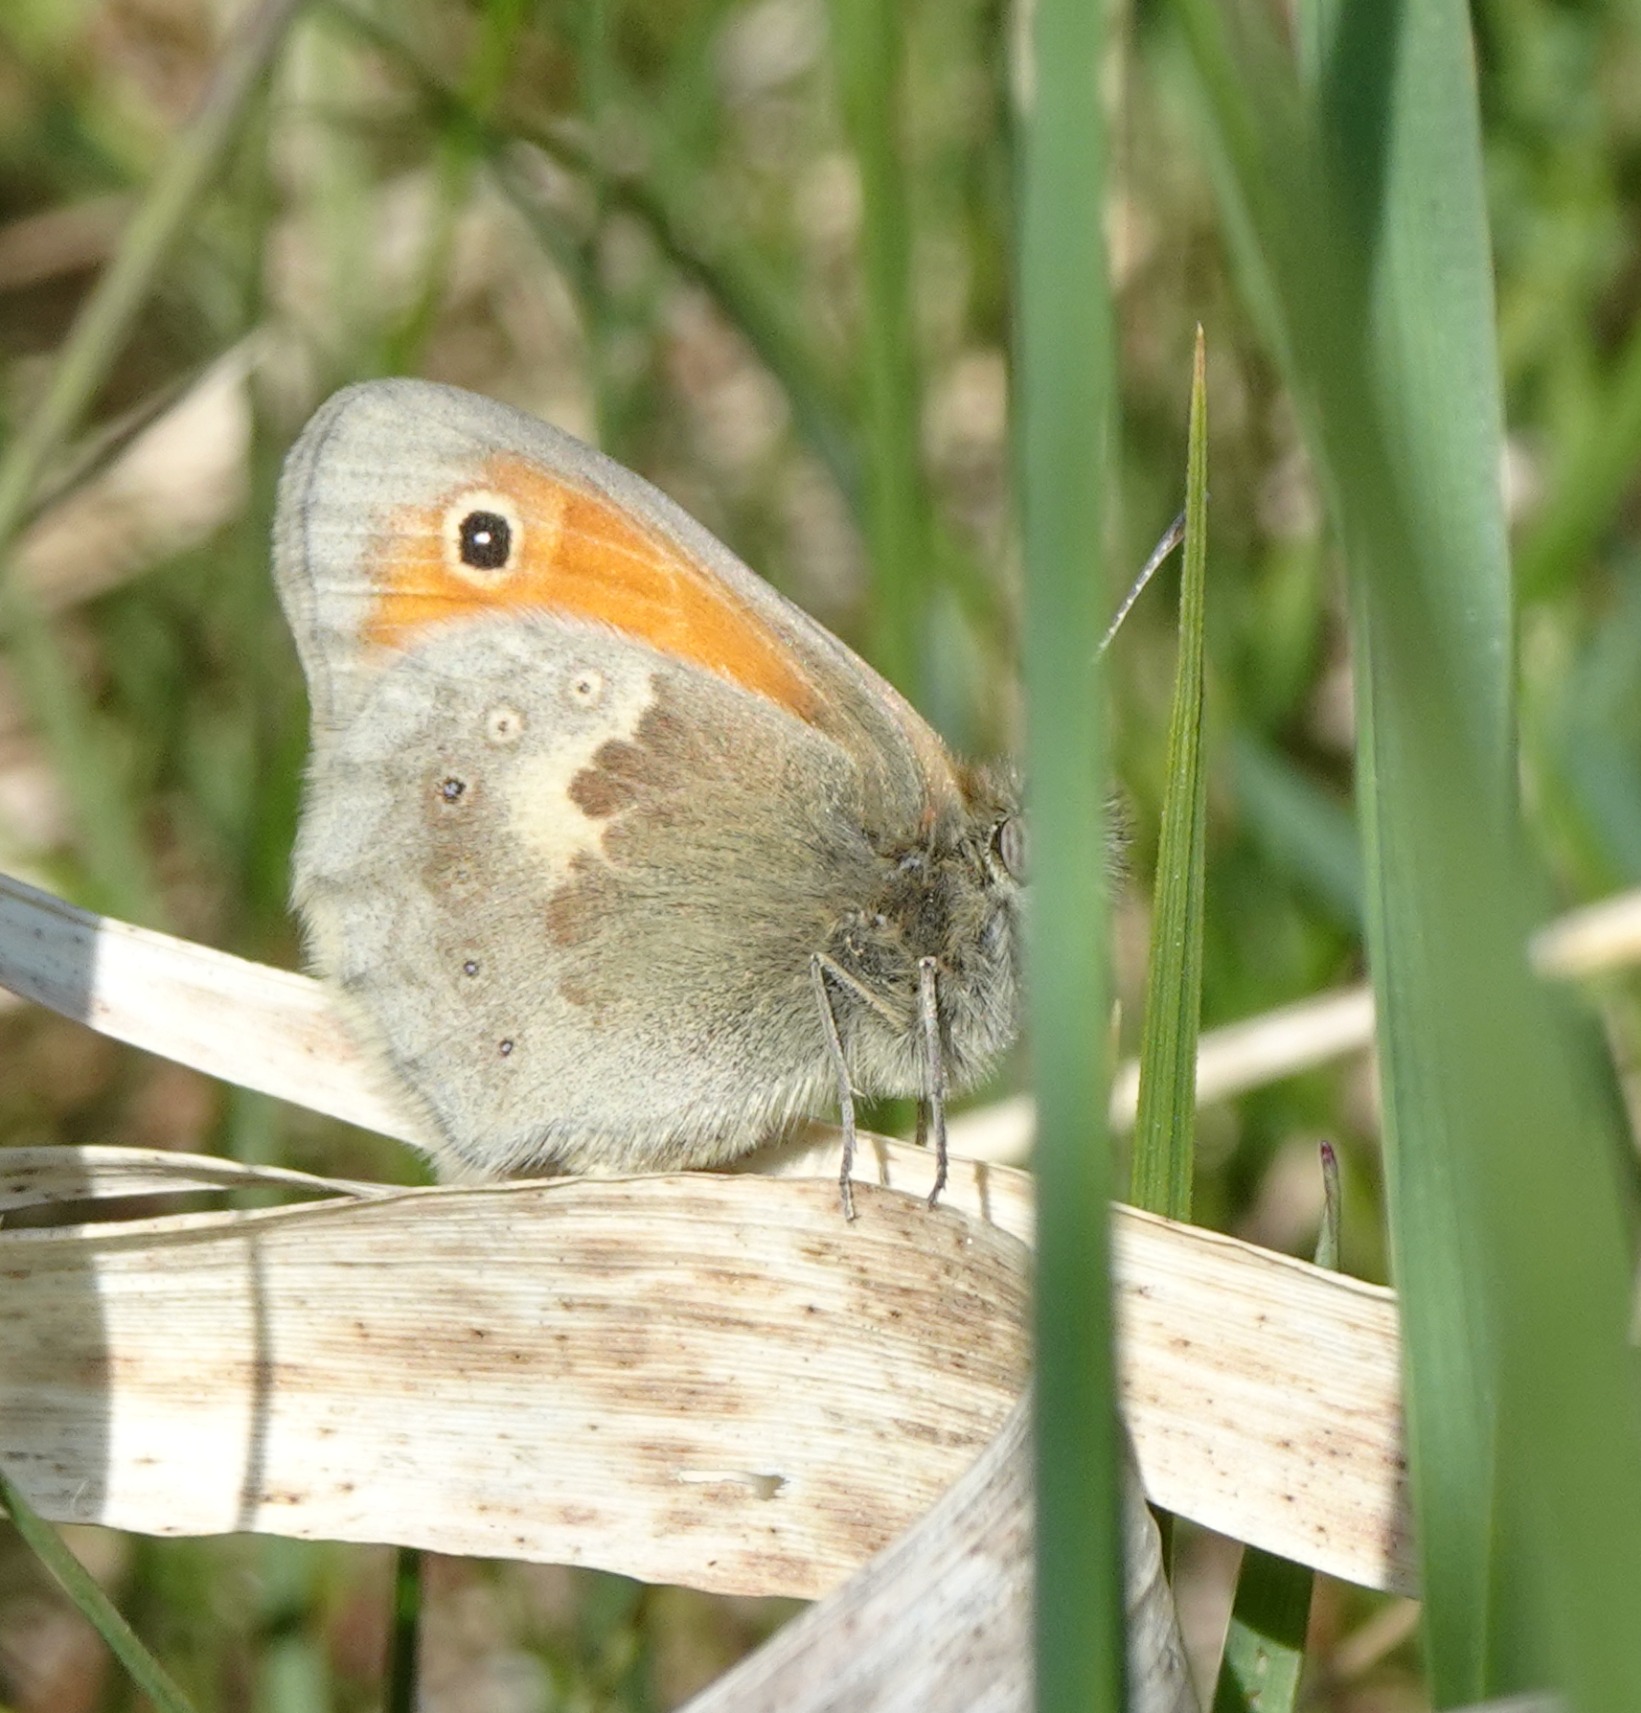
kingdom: Animalia
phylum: Arthropoda
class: Insecta
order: Lepidoptera
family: Nymphalidae
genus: Coenonympha
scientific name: Coenonympha pamphilus
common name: Okkergul randøje
